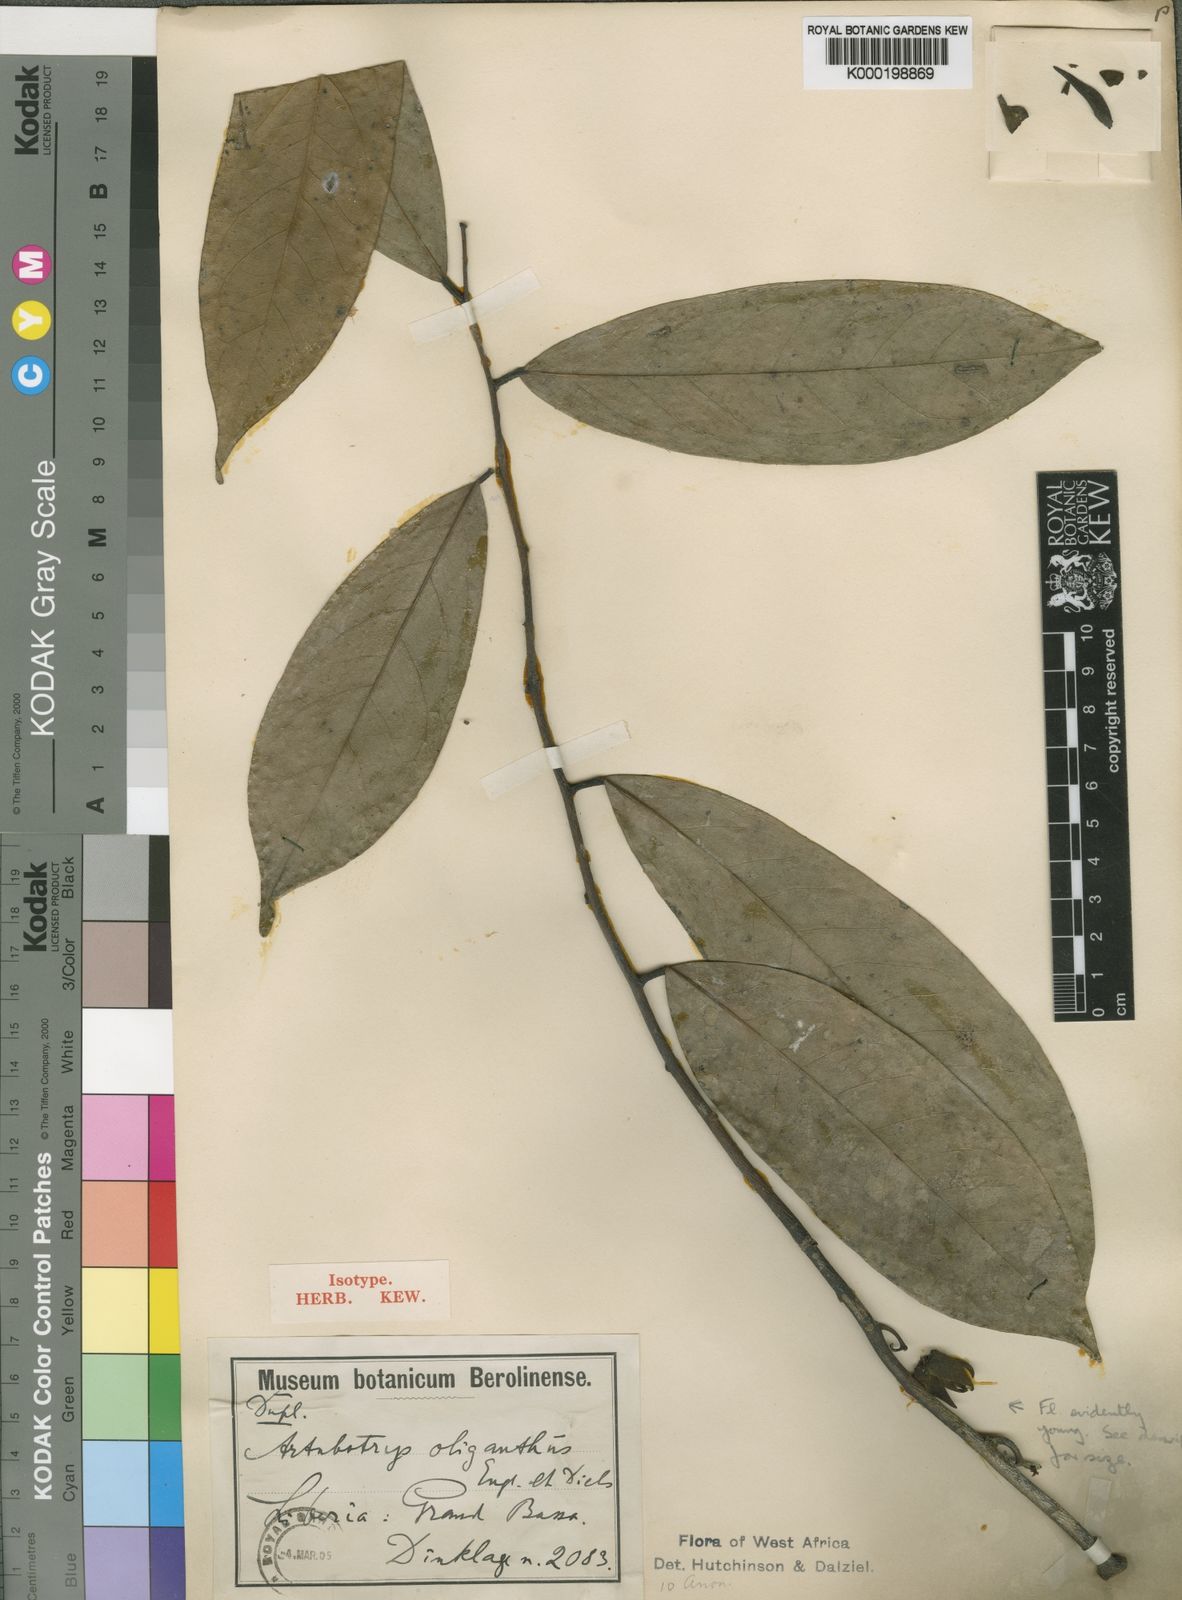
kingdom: Plantae
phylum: Tracheophyta
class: Magnoliopsida
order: Magnoliales
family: Annonaceae
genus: Artabotrys
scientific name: Artabotrys oliganthus
